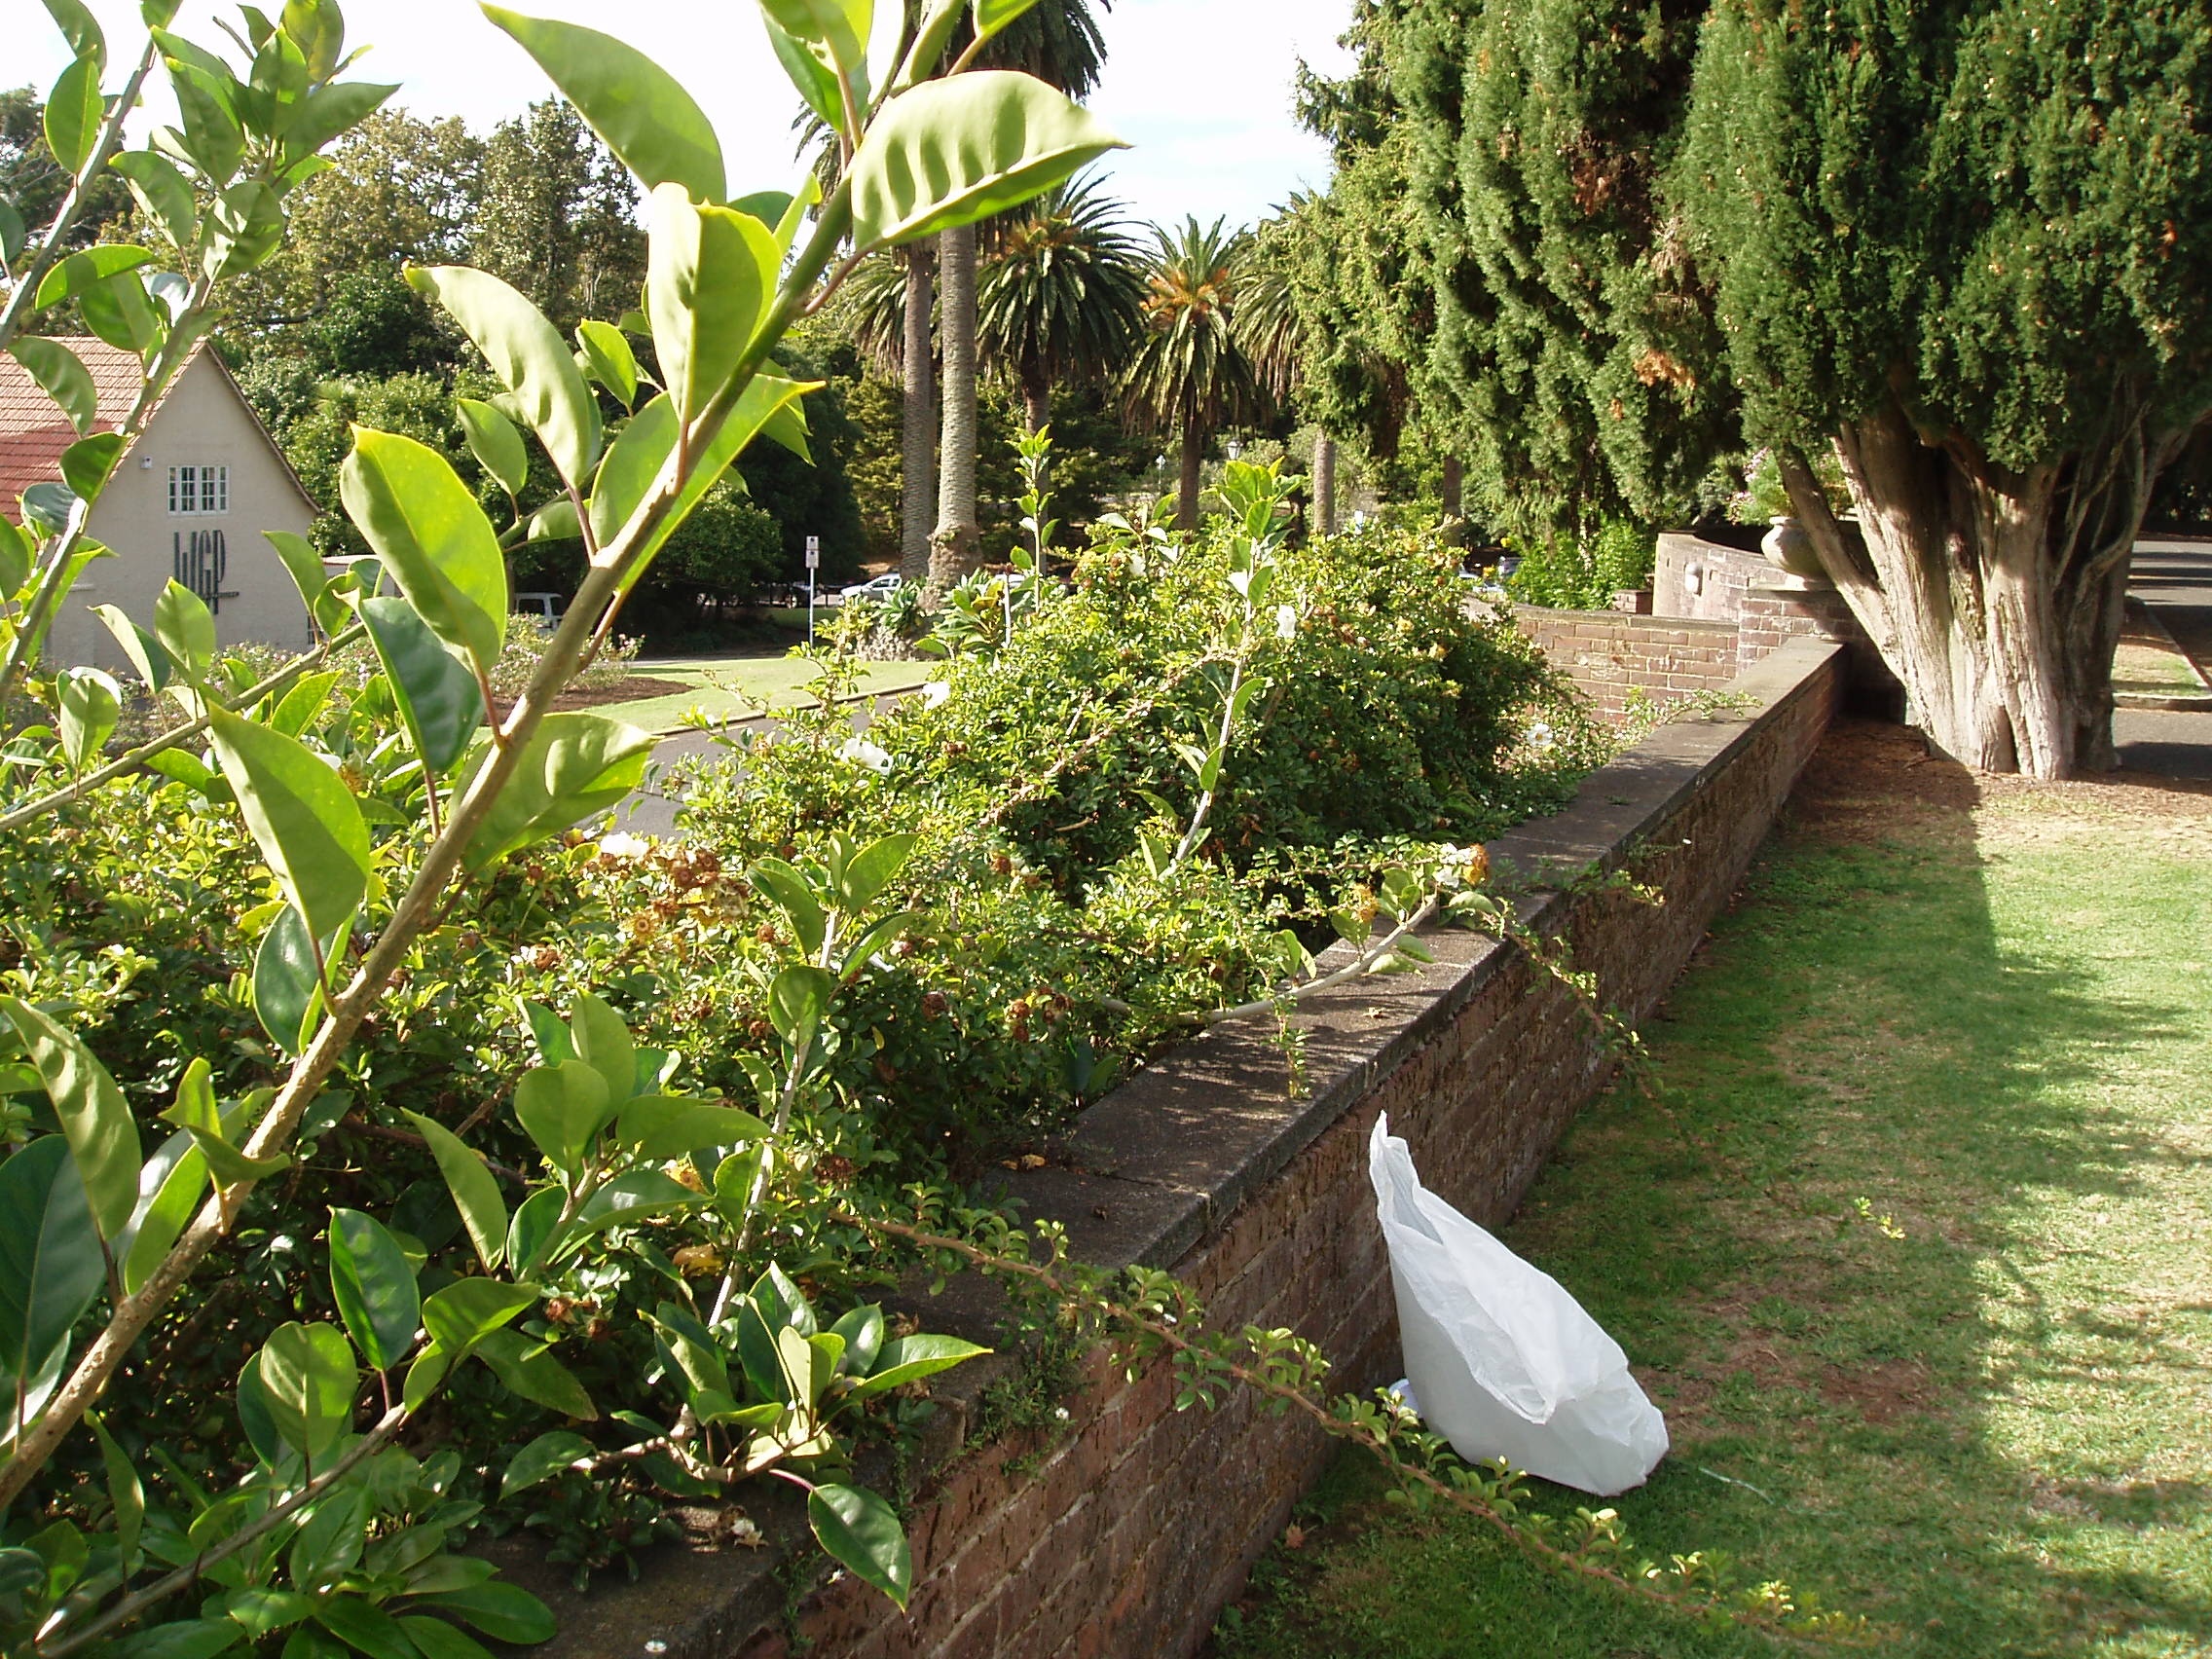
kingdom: Plantae
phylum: Tracheophyta
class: Magnoliopsida
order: Rosales
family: Rosaceae
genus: Rosa
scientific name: Rosa bracteata
